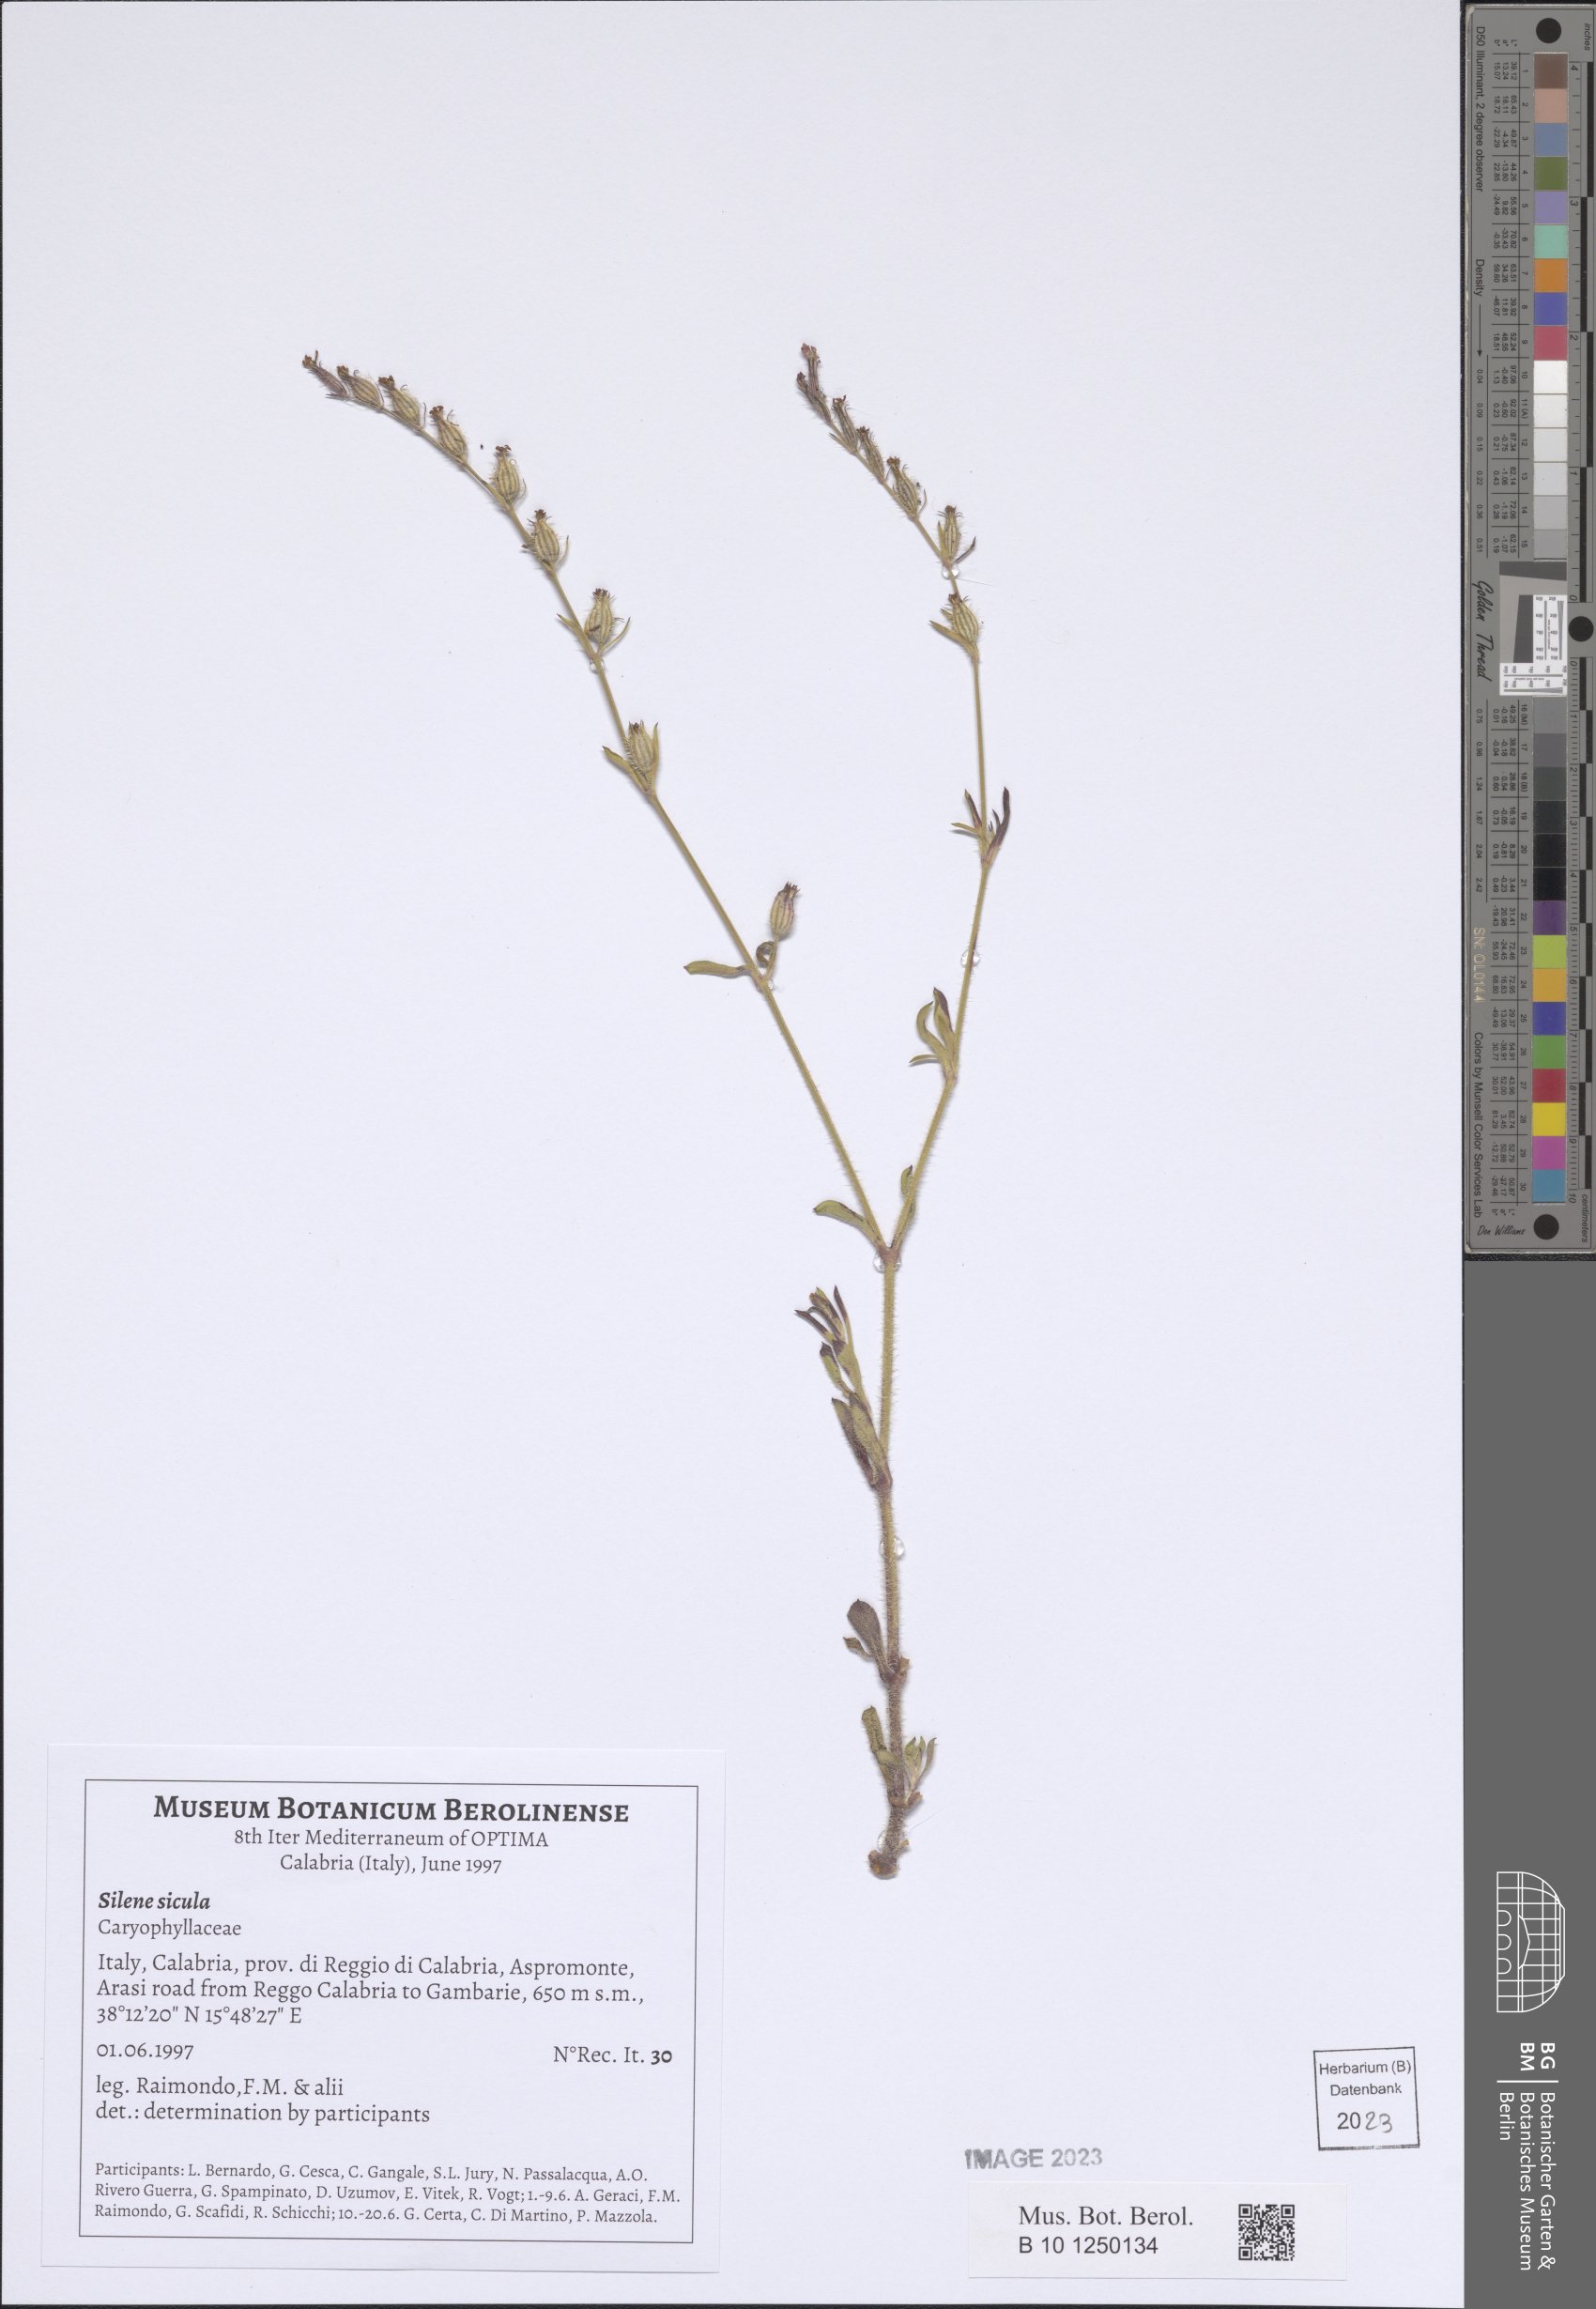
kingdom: Plantae
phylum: Tracheophyta
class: Magnoliopsida
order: Caryophyllales
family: Caryophyllaceae
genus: Silene
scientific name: Silene italica
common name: Italian catchfly
